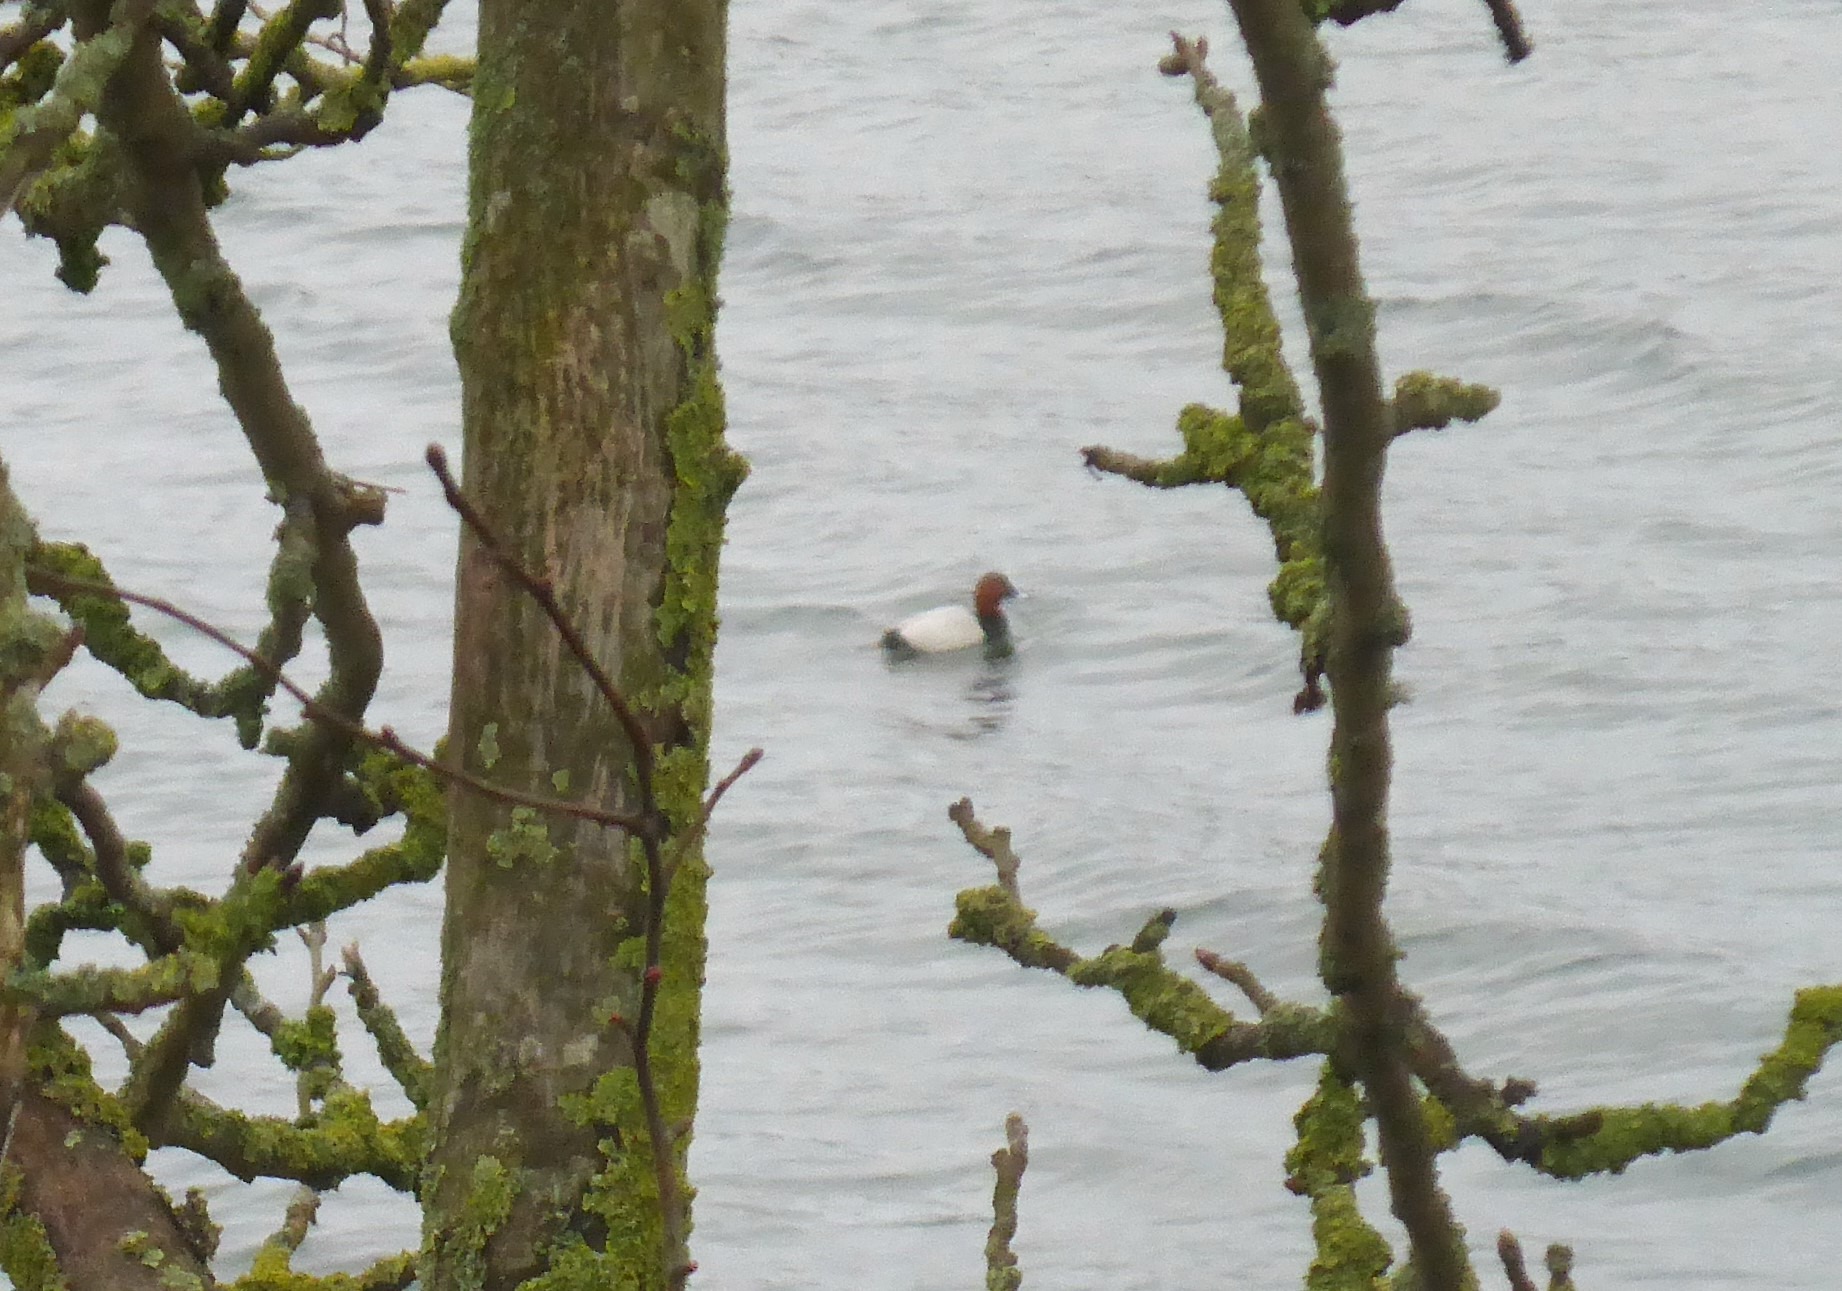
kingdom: Animalia
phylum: Chordata
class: Aves
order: Anseriformes
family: Anatidae
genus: Aythya
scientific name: Aythya ferina
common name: Taffeland
